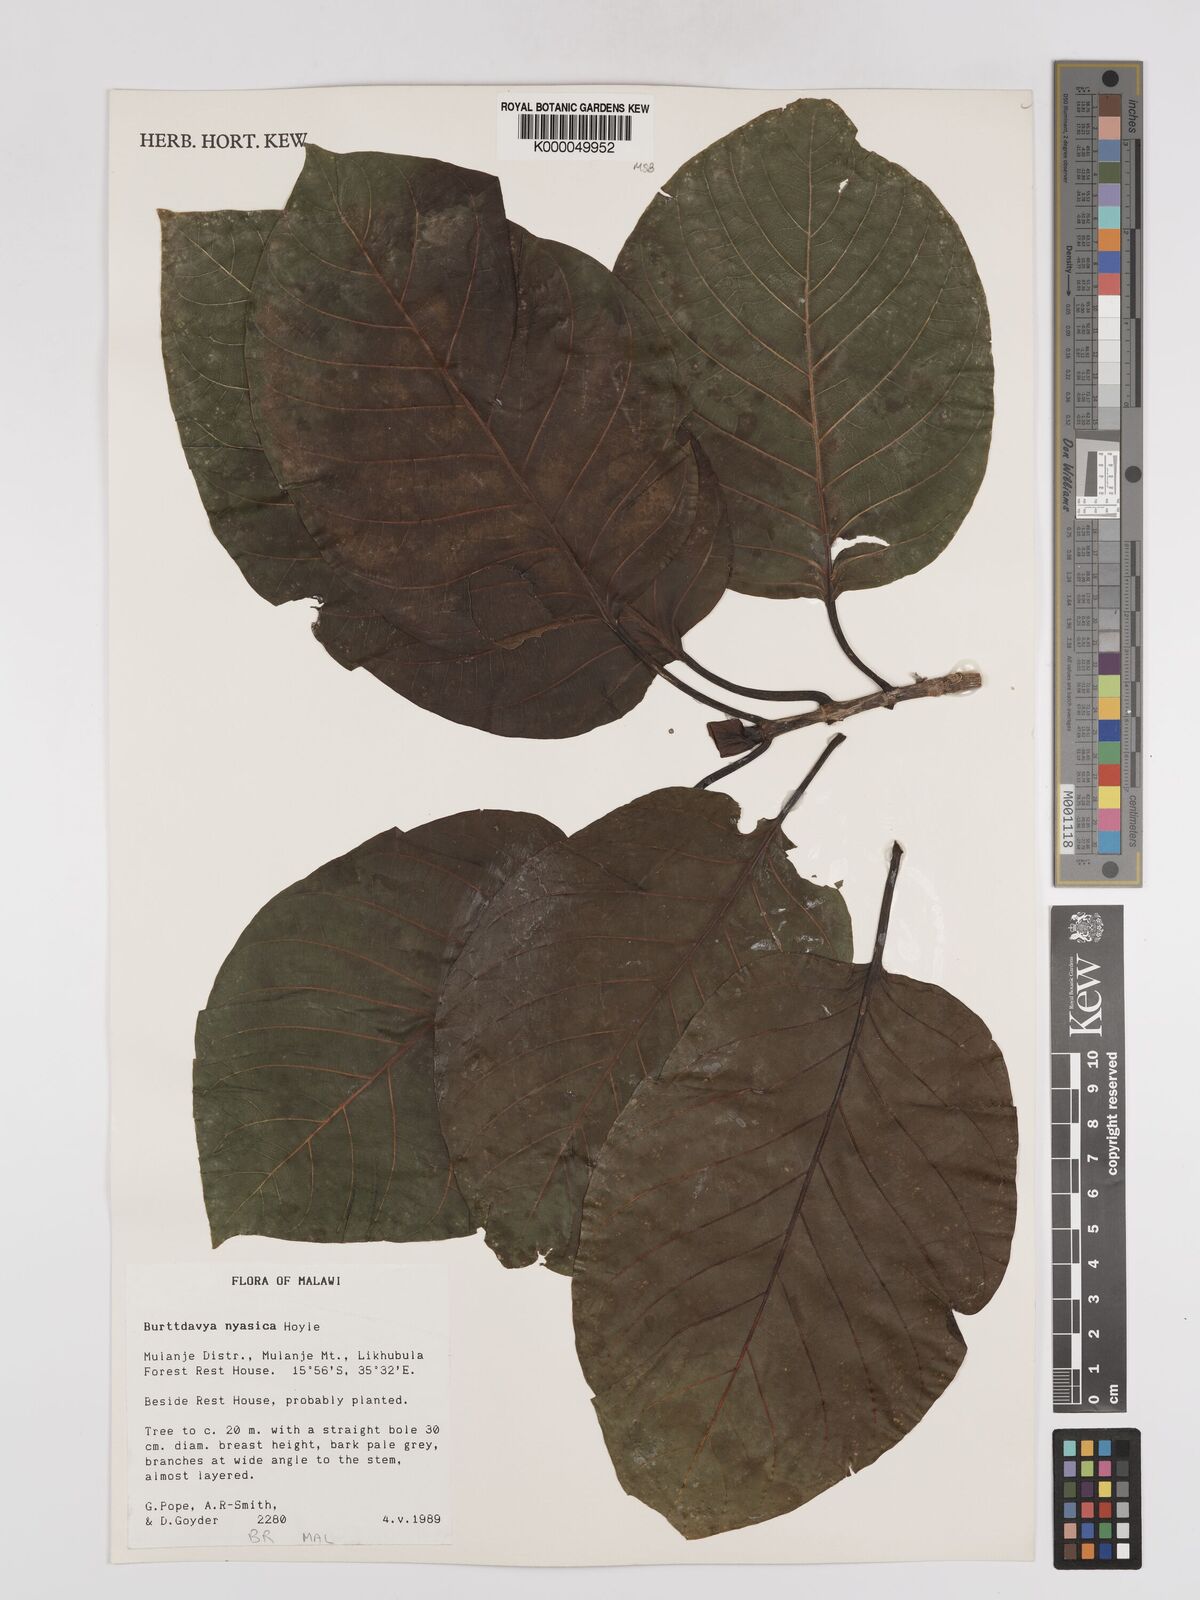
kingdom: Plantae
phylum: Tracheophyta
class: Magnoliopsida
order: Gentianales
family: Rubiaceae
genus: Nauclea
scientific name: Nauclea
